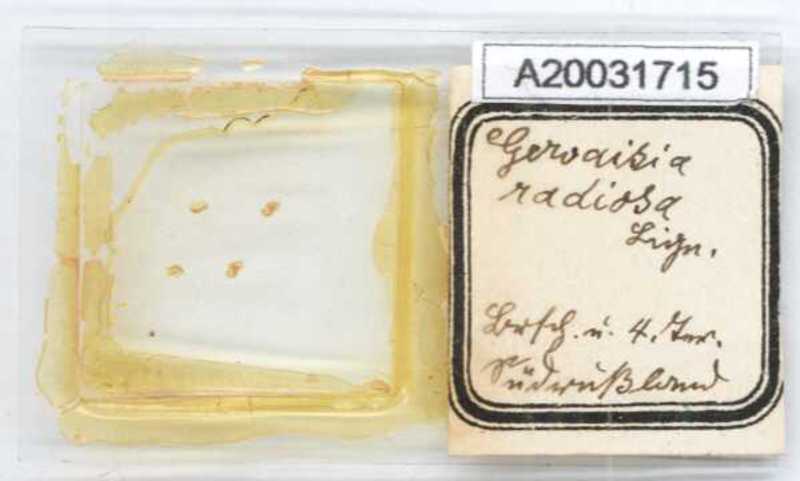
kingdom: Animalia
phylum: Arthropoda
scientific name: Arthropoda
